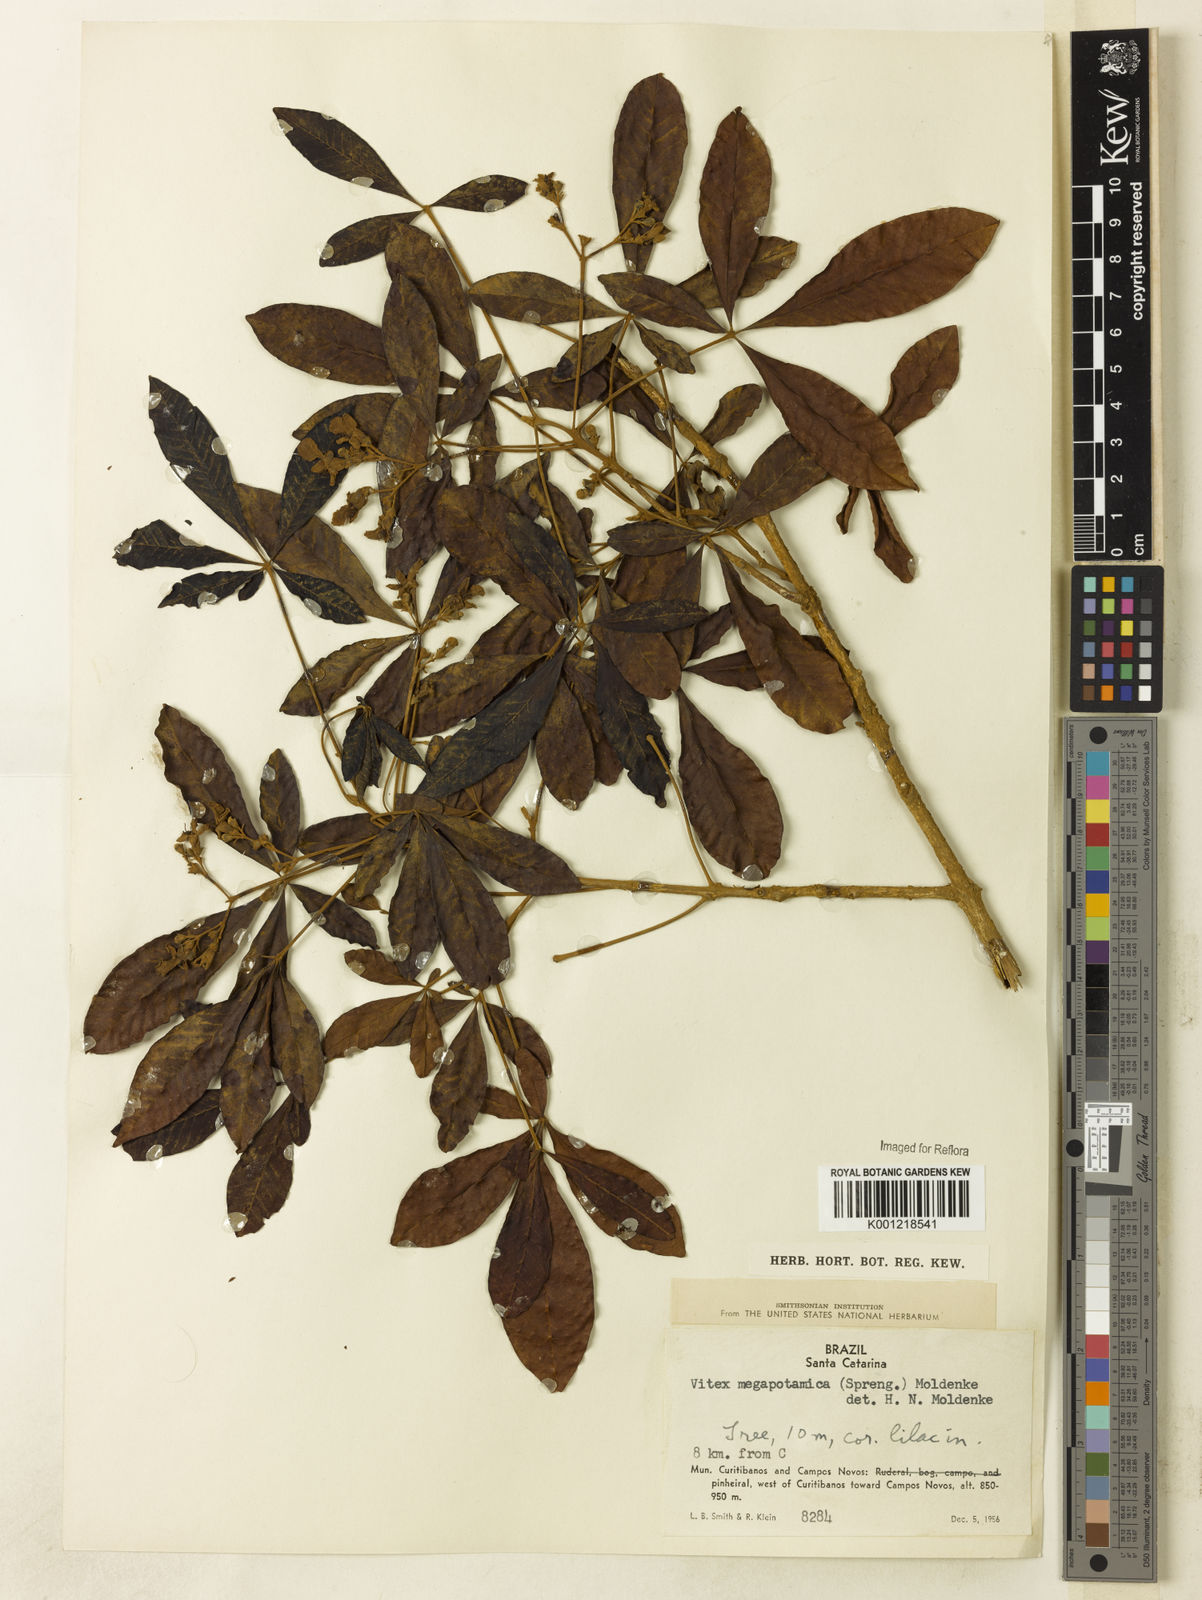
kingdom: Plantae
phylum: Tracheophyta
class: Magnoliopsida
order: Lamiales
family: Lamiaceae
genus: Vitex
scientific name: Vitex megapotamica
